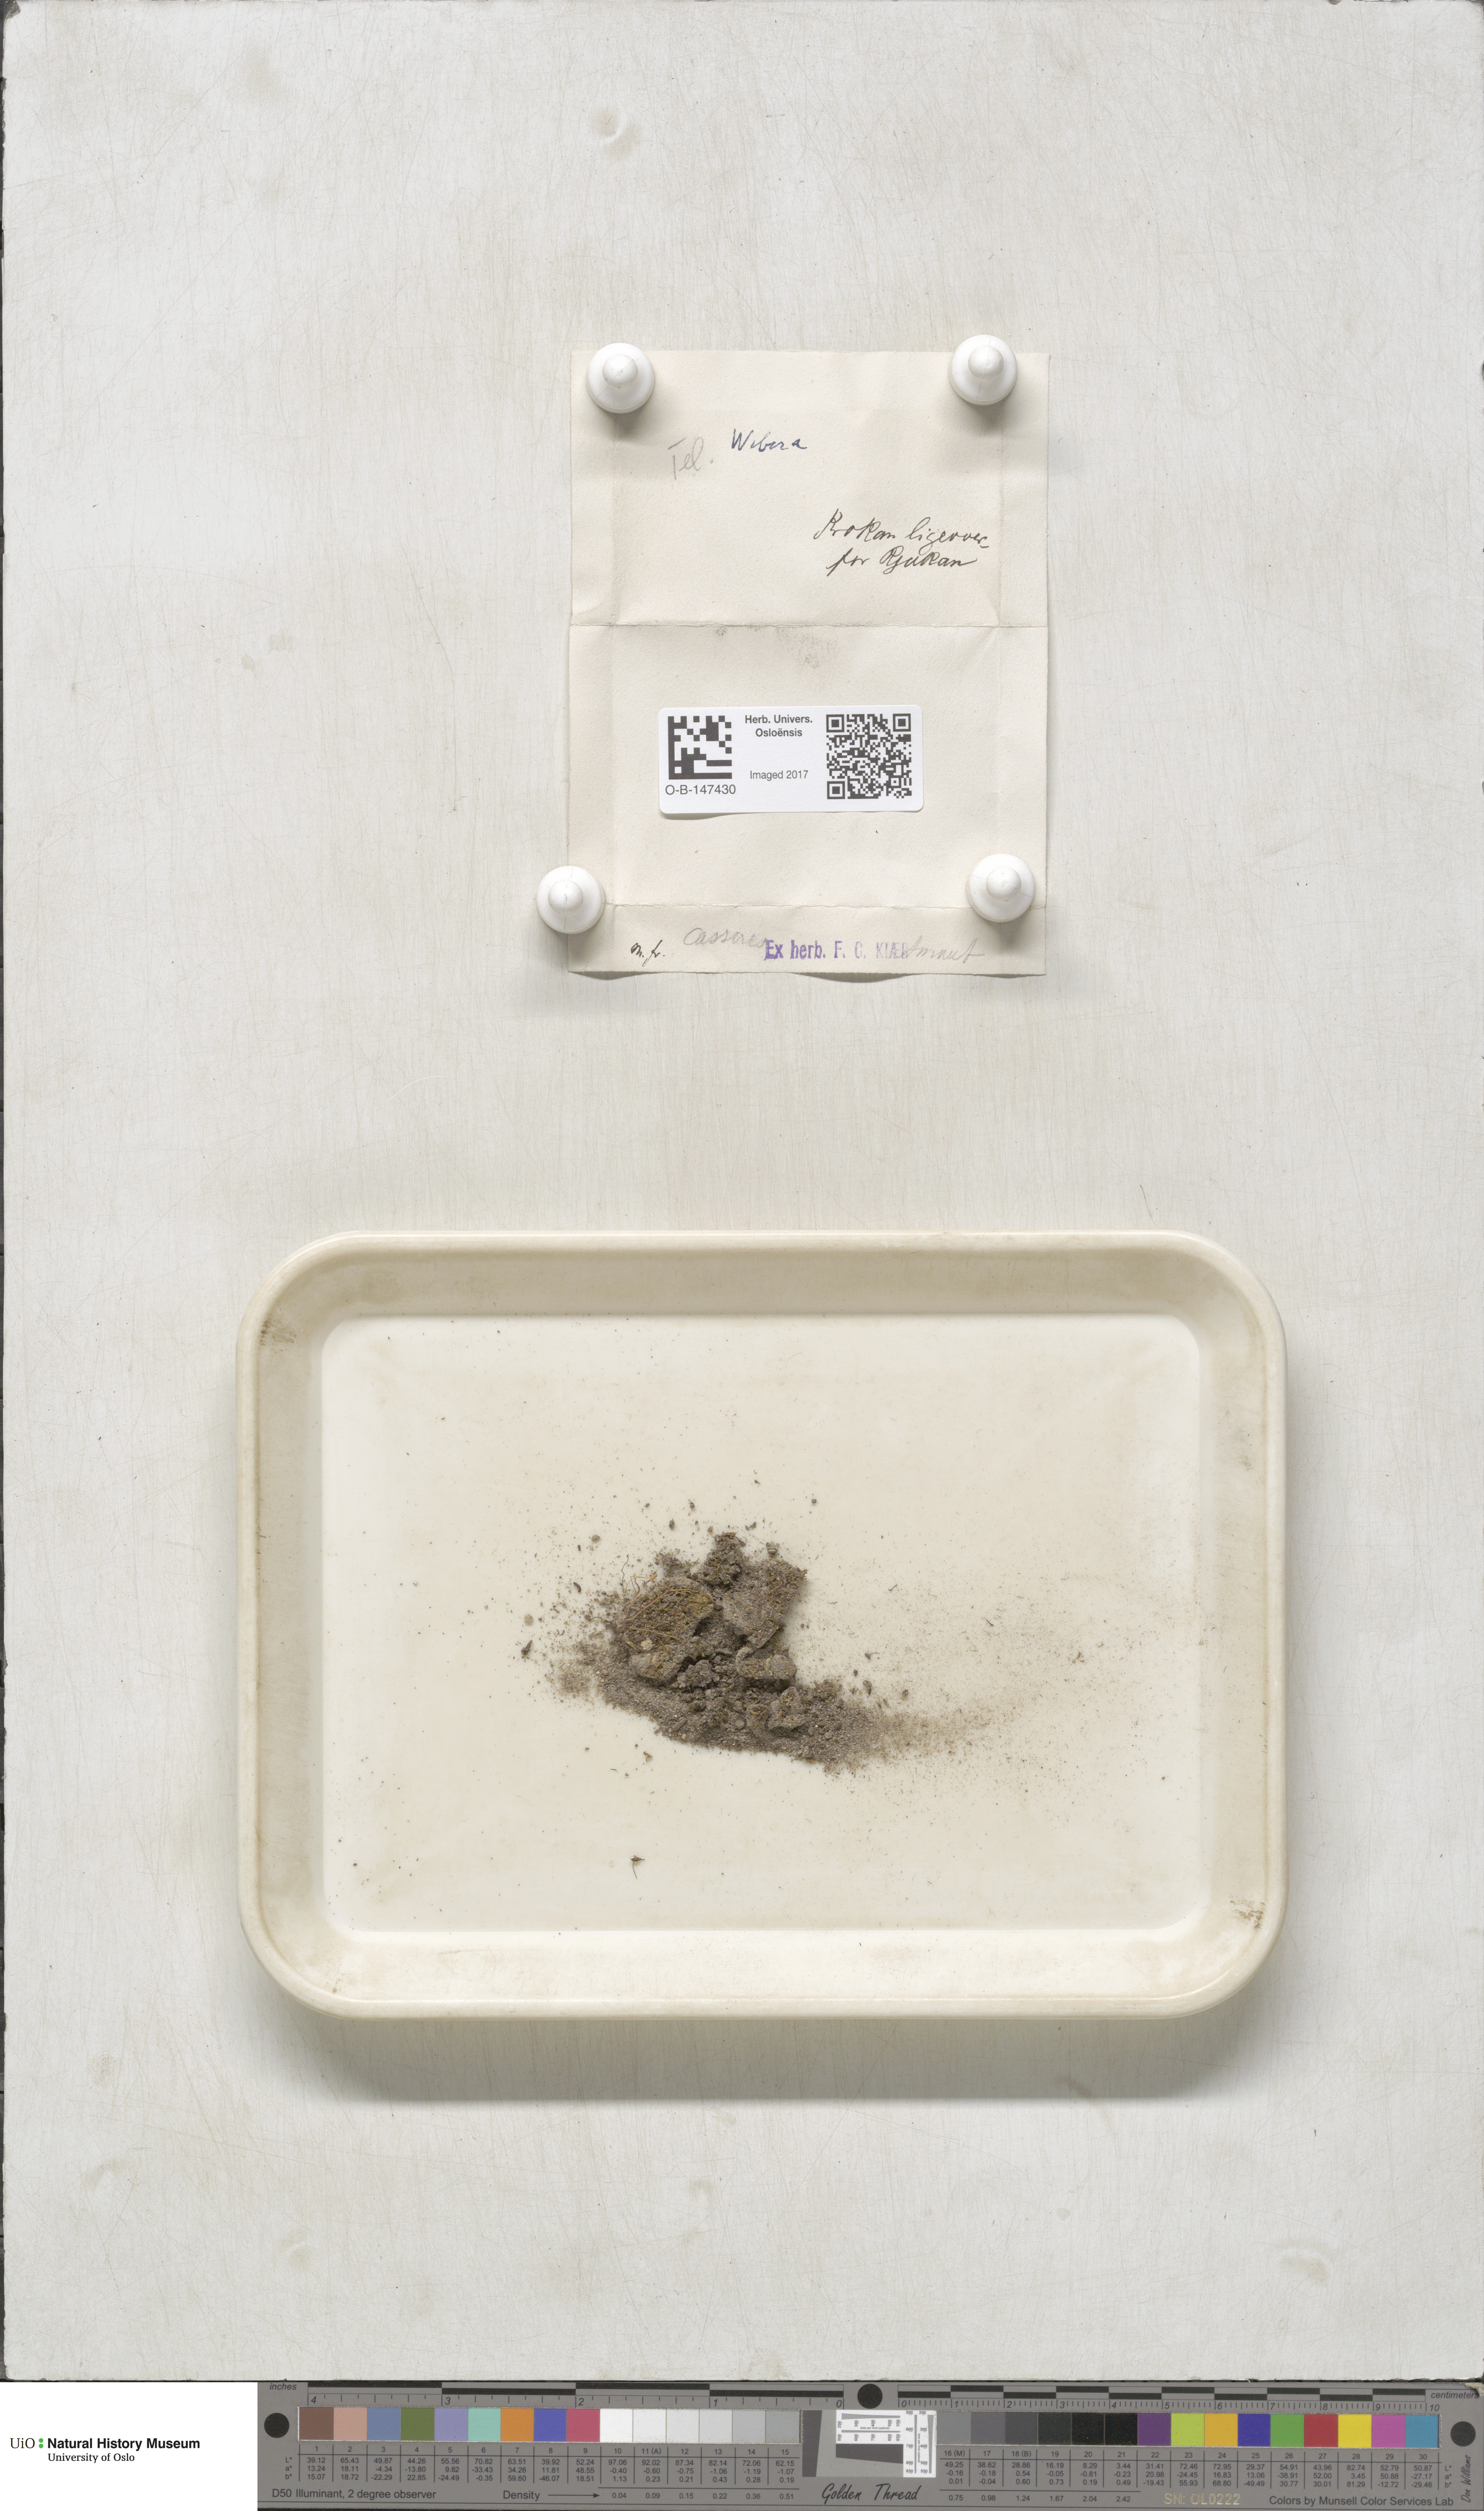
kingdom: Plantae
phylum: Bryophyta
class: Bryopsida
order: Bryales
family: Mniaceae
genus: Pohlia
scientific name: Pohlia
